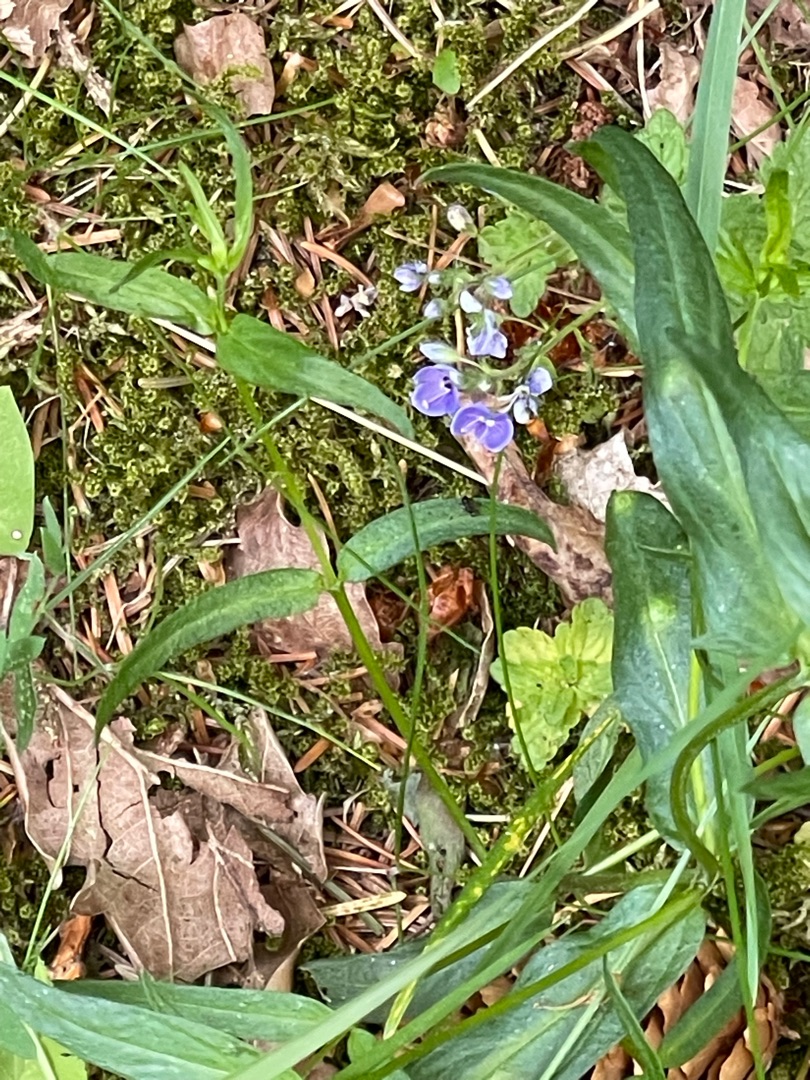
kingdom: Plantae
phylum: Tracheophyta
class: Magnoliopsida
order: Lamiales
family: Plantaginaceae
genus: Veronica
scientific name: Veronica chamaedrys
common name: Tveskægget ærenpris
